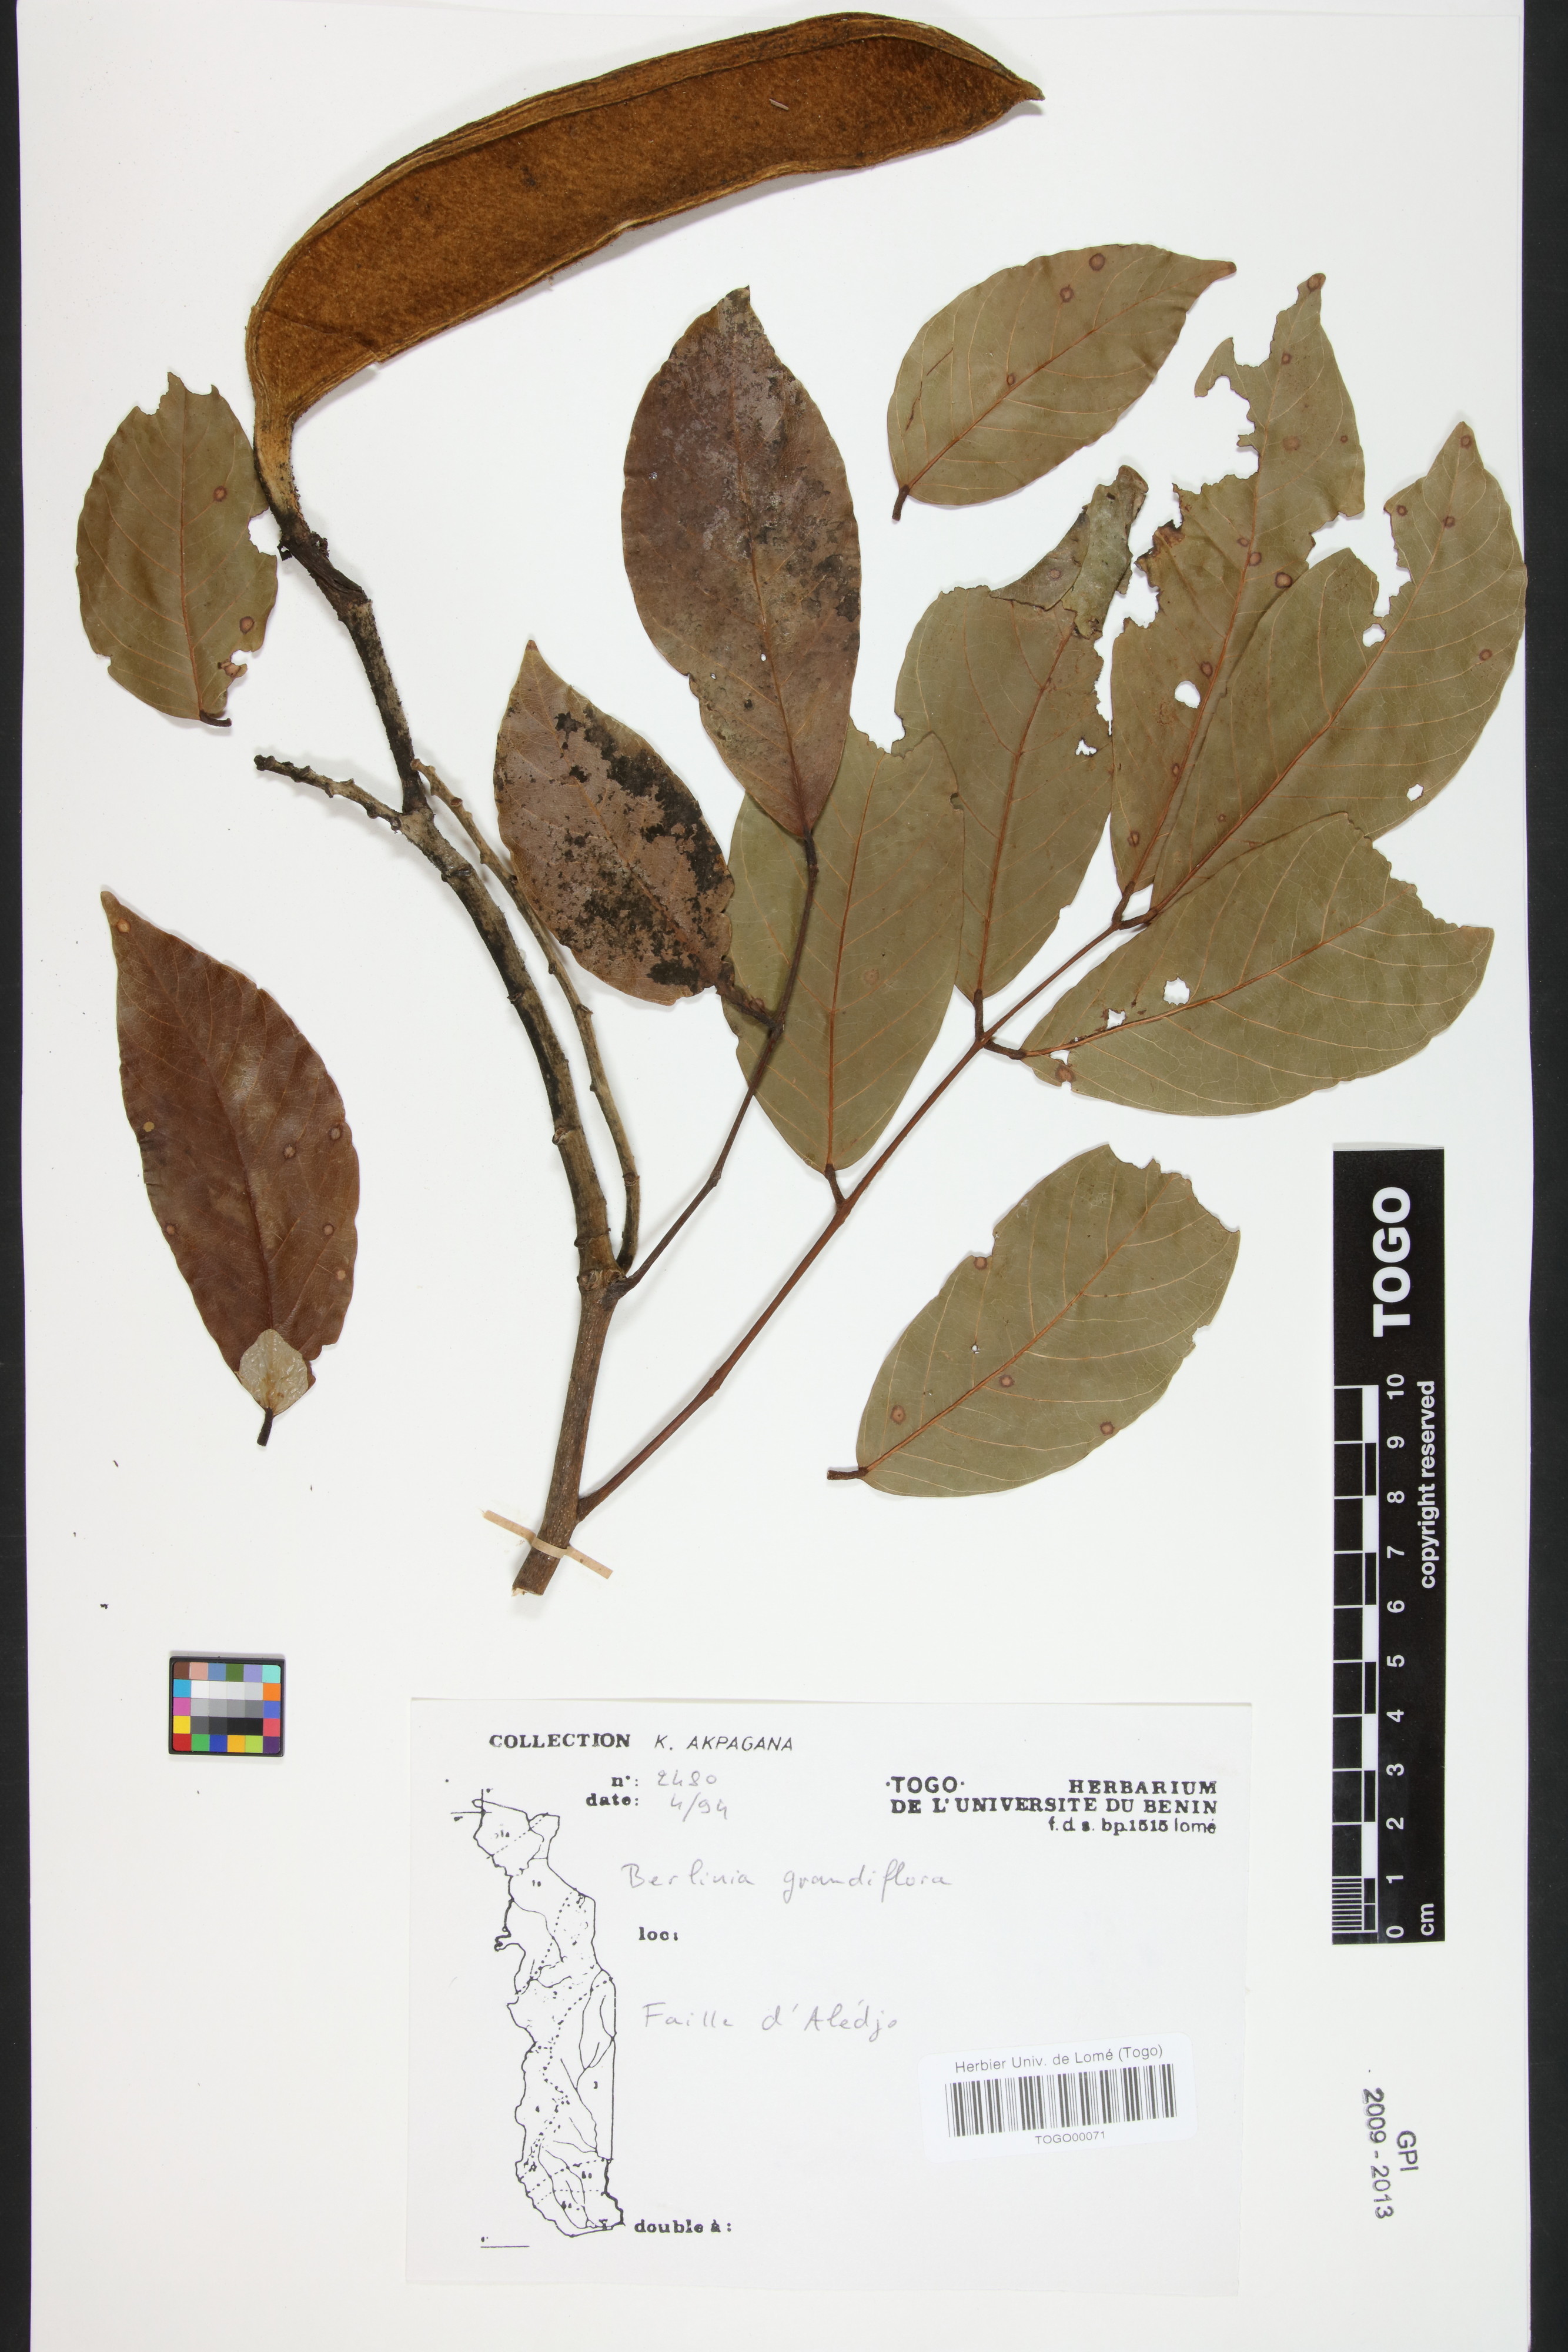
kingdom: Plantae
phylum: Tracheophyta
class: Magnoliopsida
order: Fabales
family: Fabaceae
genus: Berlinia
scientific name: Berlinia grandiflora
